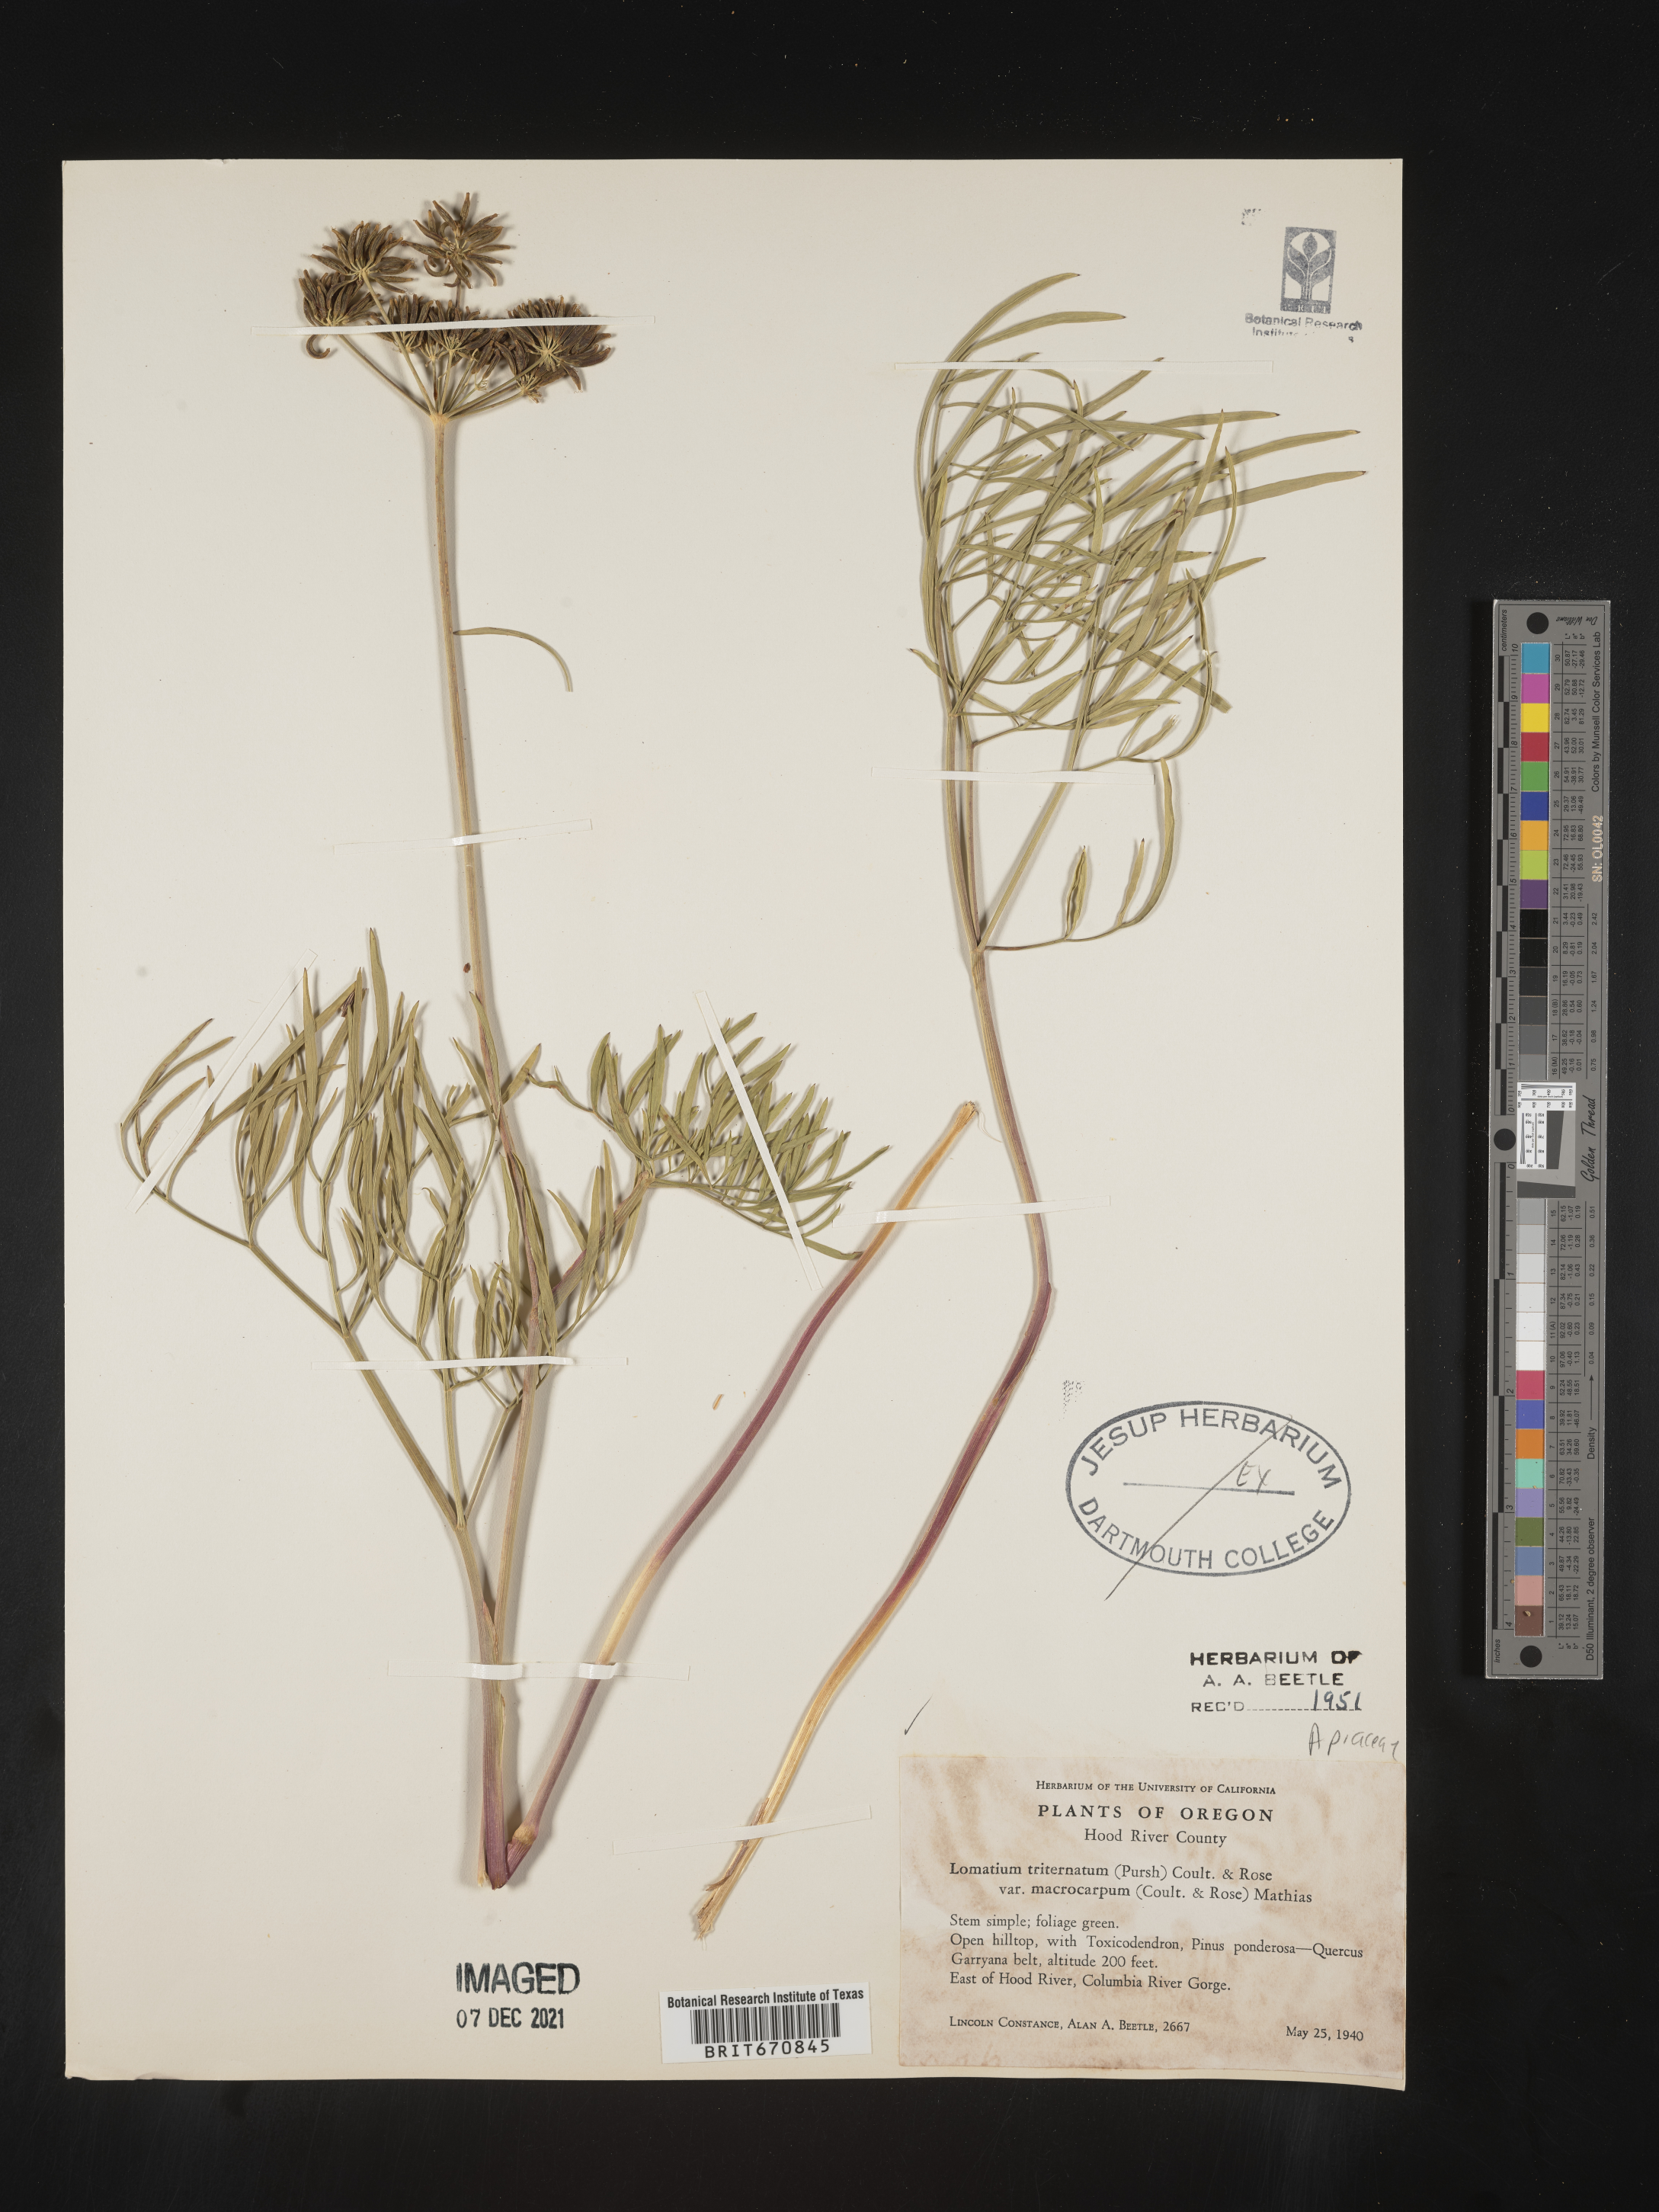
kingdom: Plantae
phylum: Tracheophyta
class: Magnoliopsida
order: Apiales
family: Apiaceae
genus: Lomatium
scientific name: Lomatium triternatum
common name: Ternate lomatium
